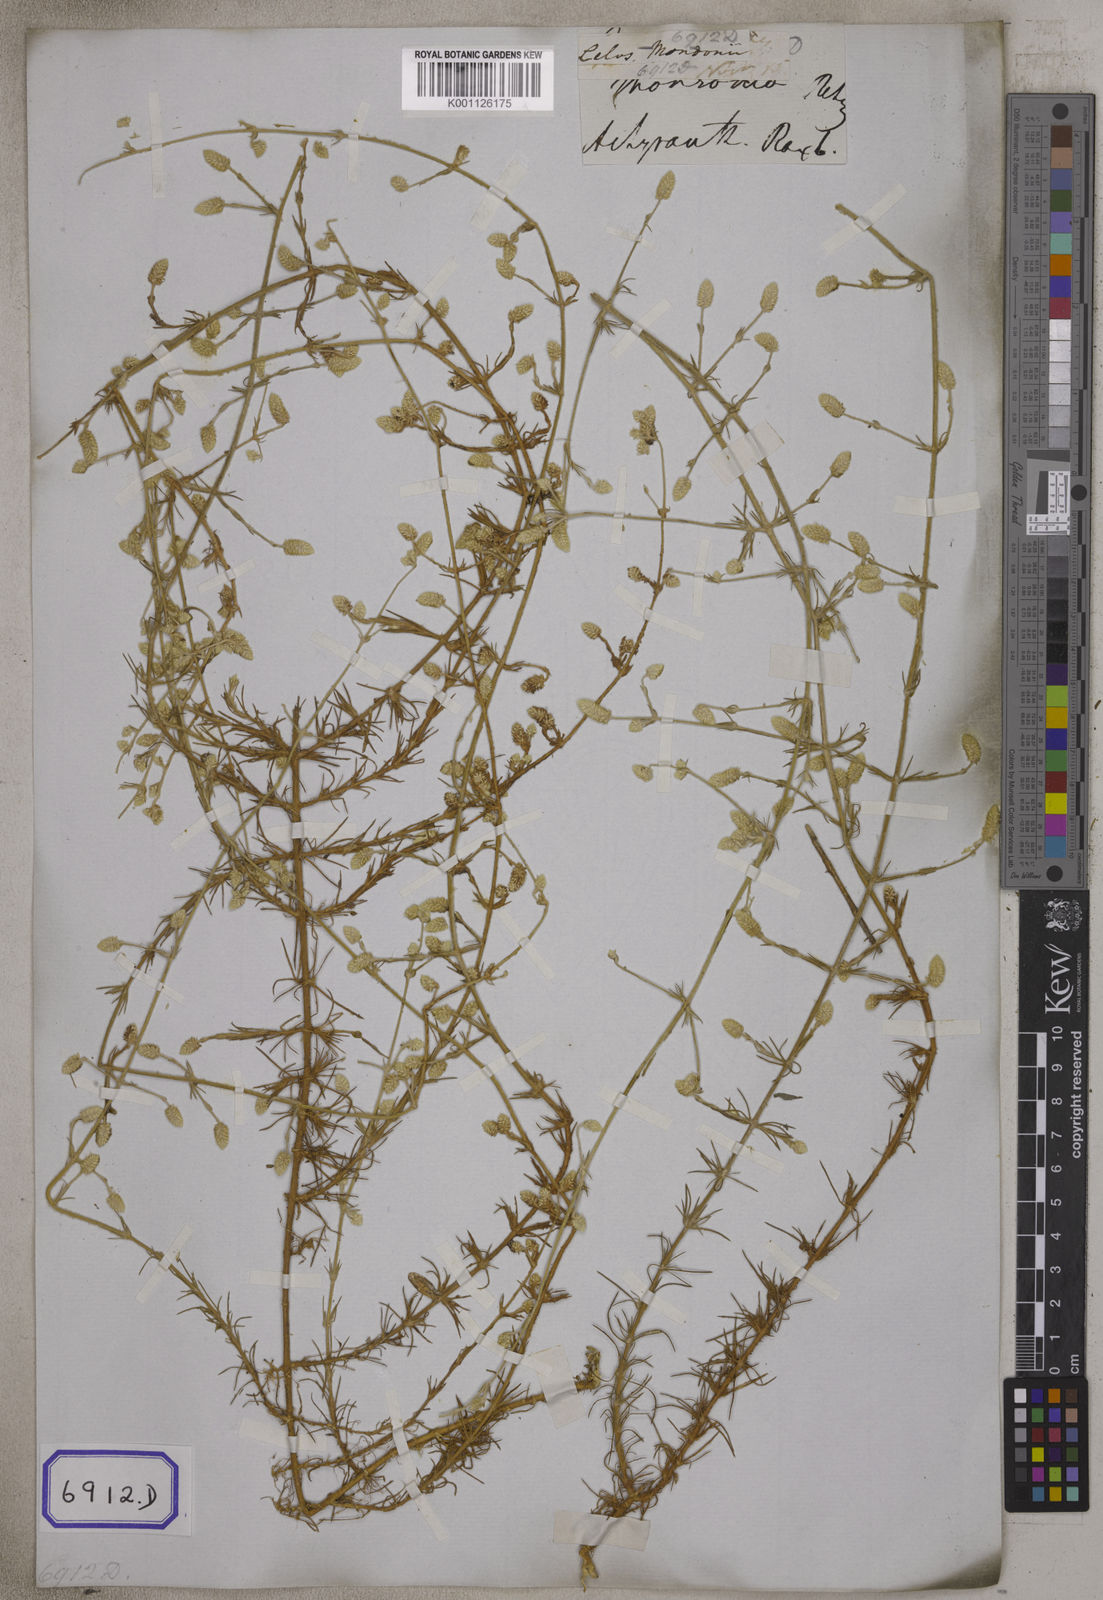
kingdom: Plantae
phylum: Tracheophyta
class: Magnoliopsida
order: Caryophyllales
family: Amaranthaceae
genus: Aerva
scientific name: Aerva
